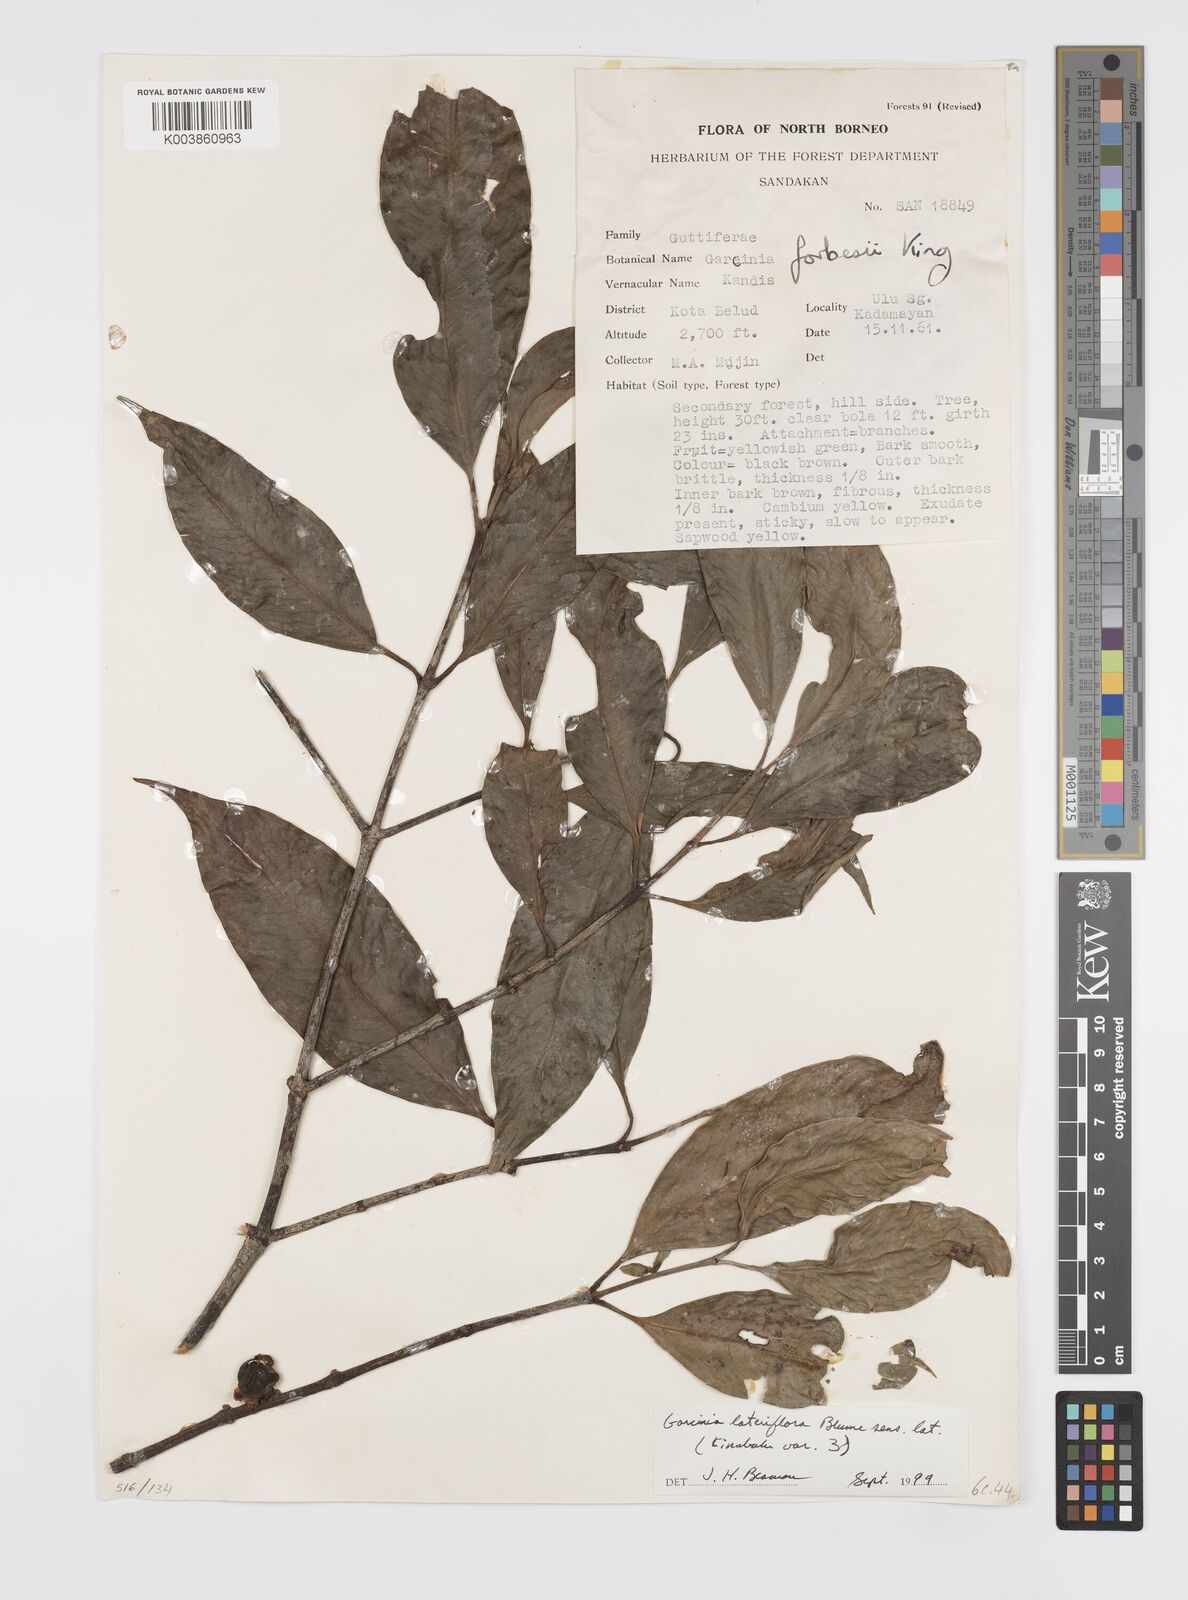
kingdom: Plantae
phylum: Tracheophyta
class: Magnoliopsida
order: Malpighiales
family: Clusiaceae
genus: Garcinia
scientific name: Garcinia lateriflora
